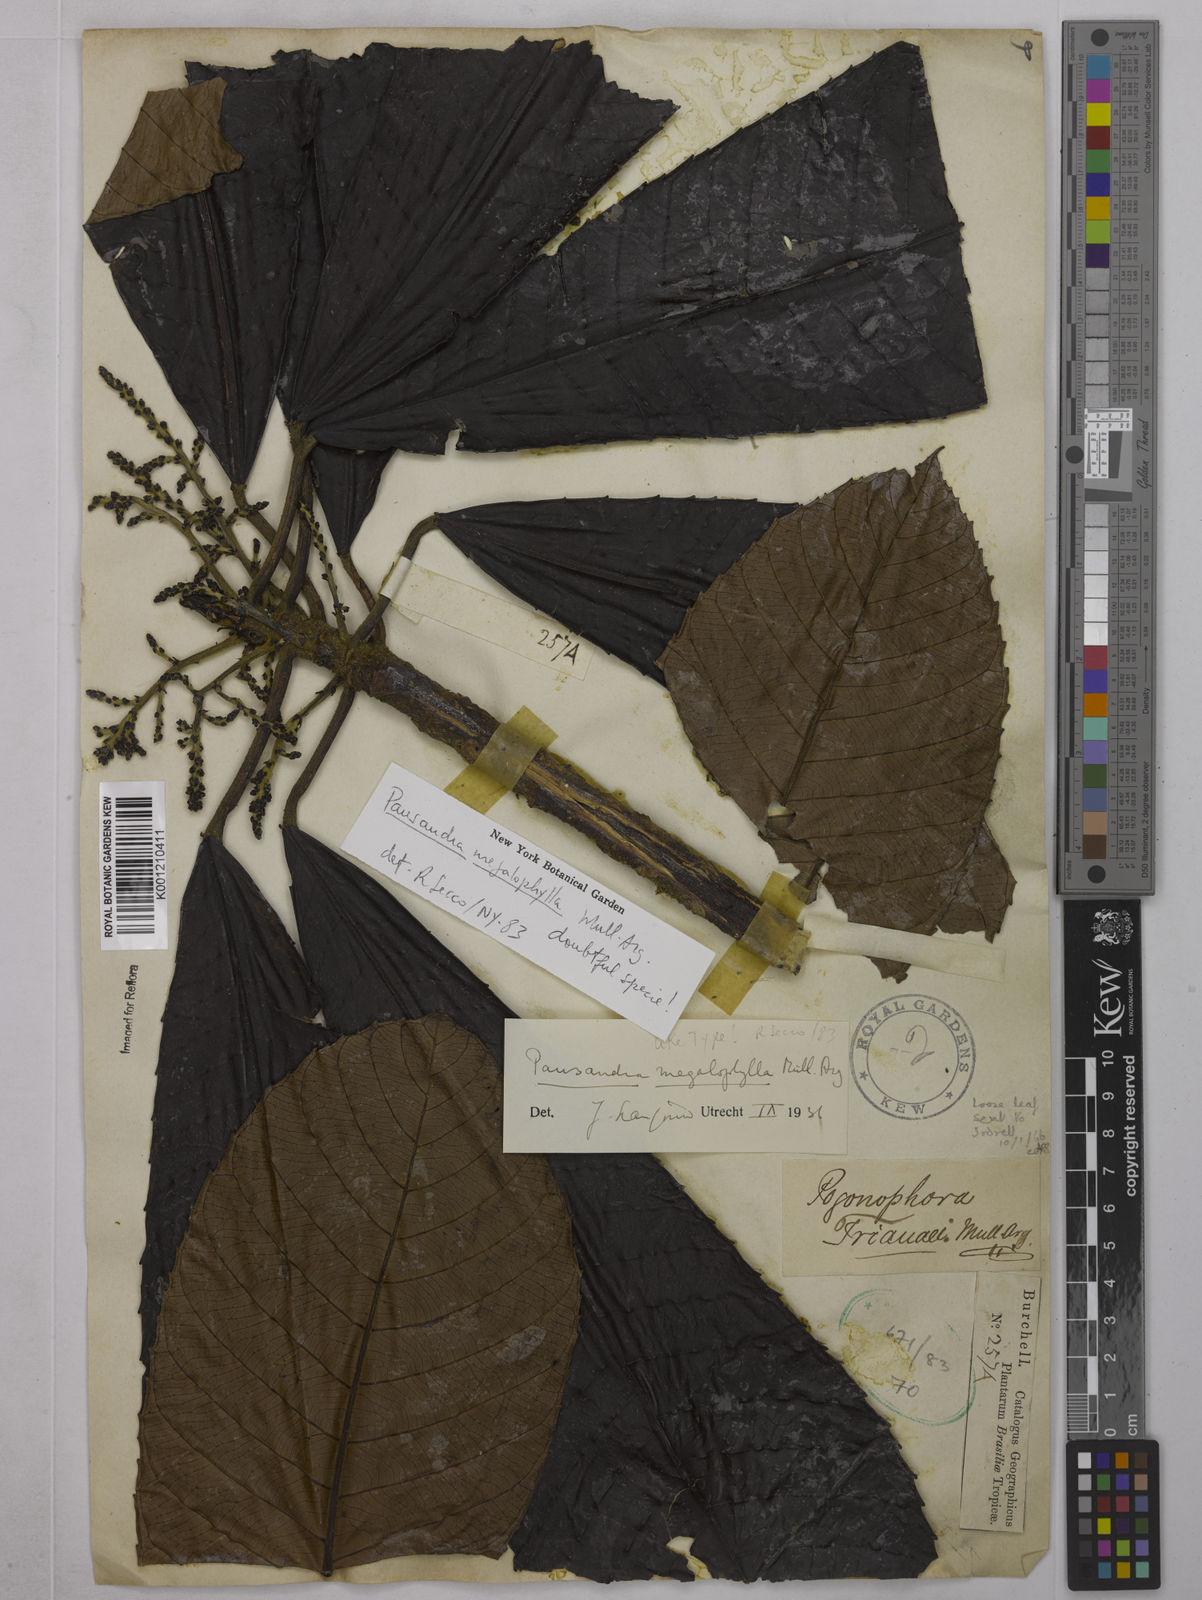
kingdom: Plantae
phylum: Tracheophyta
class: Magnoliopsida
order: Malpighiales
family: Euphorbiaceae
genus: Pausandra
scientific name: Pausandra
